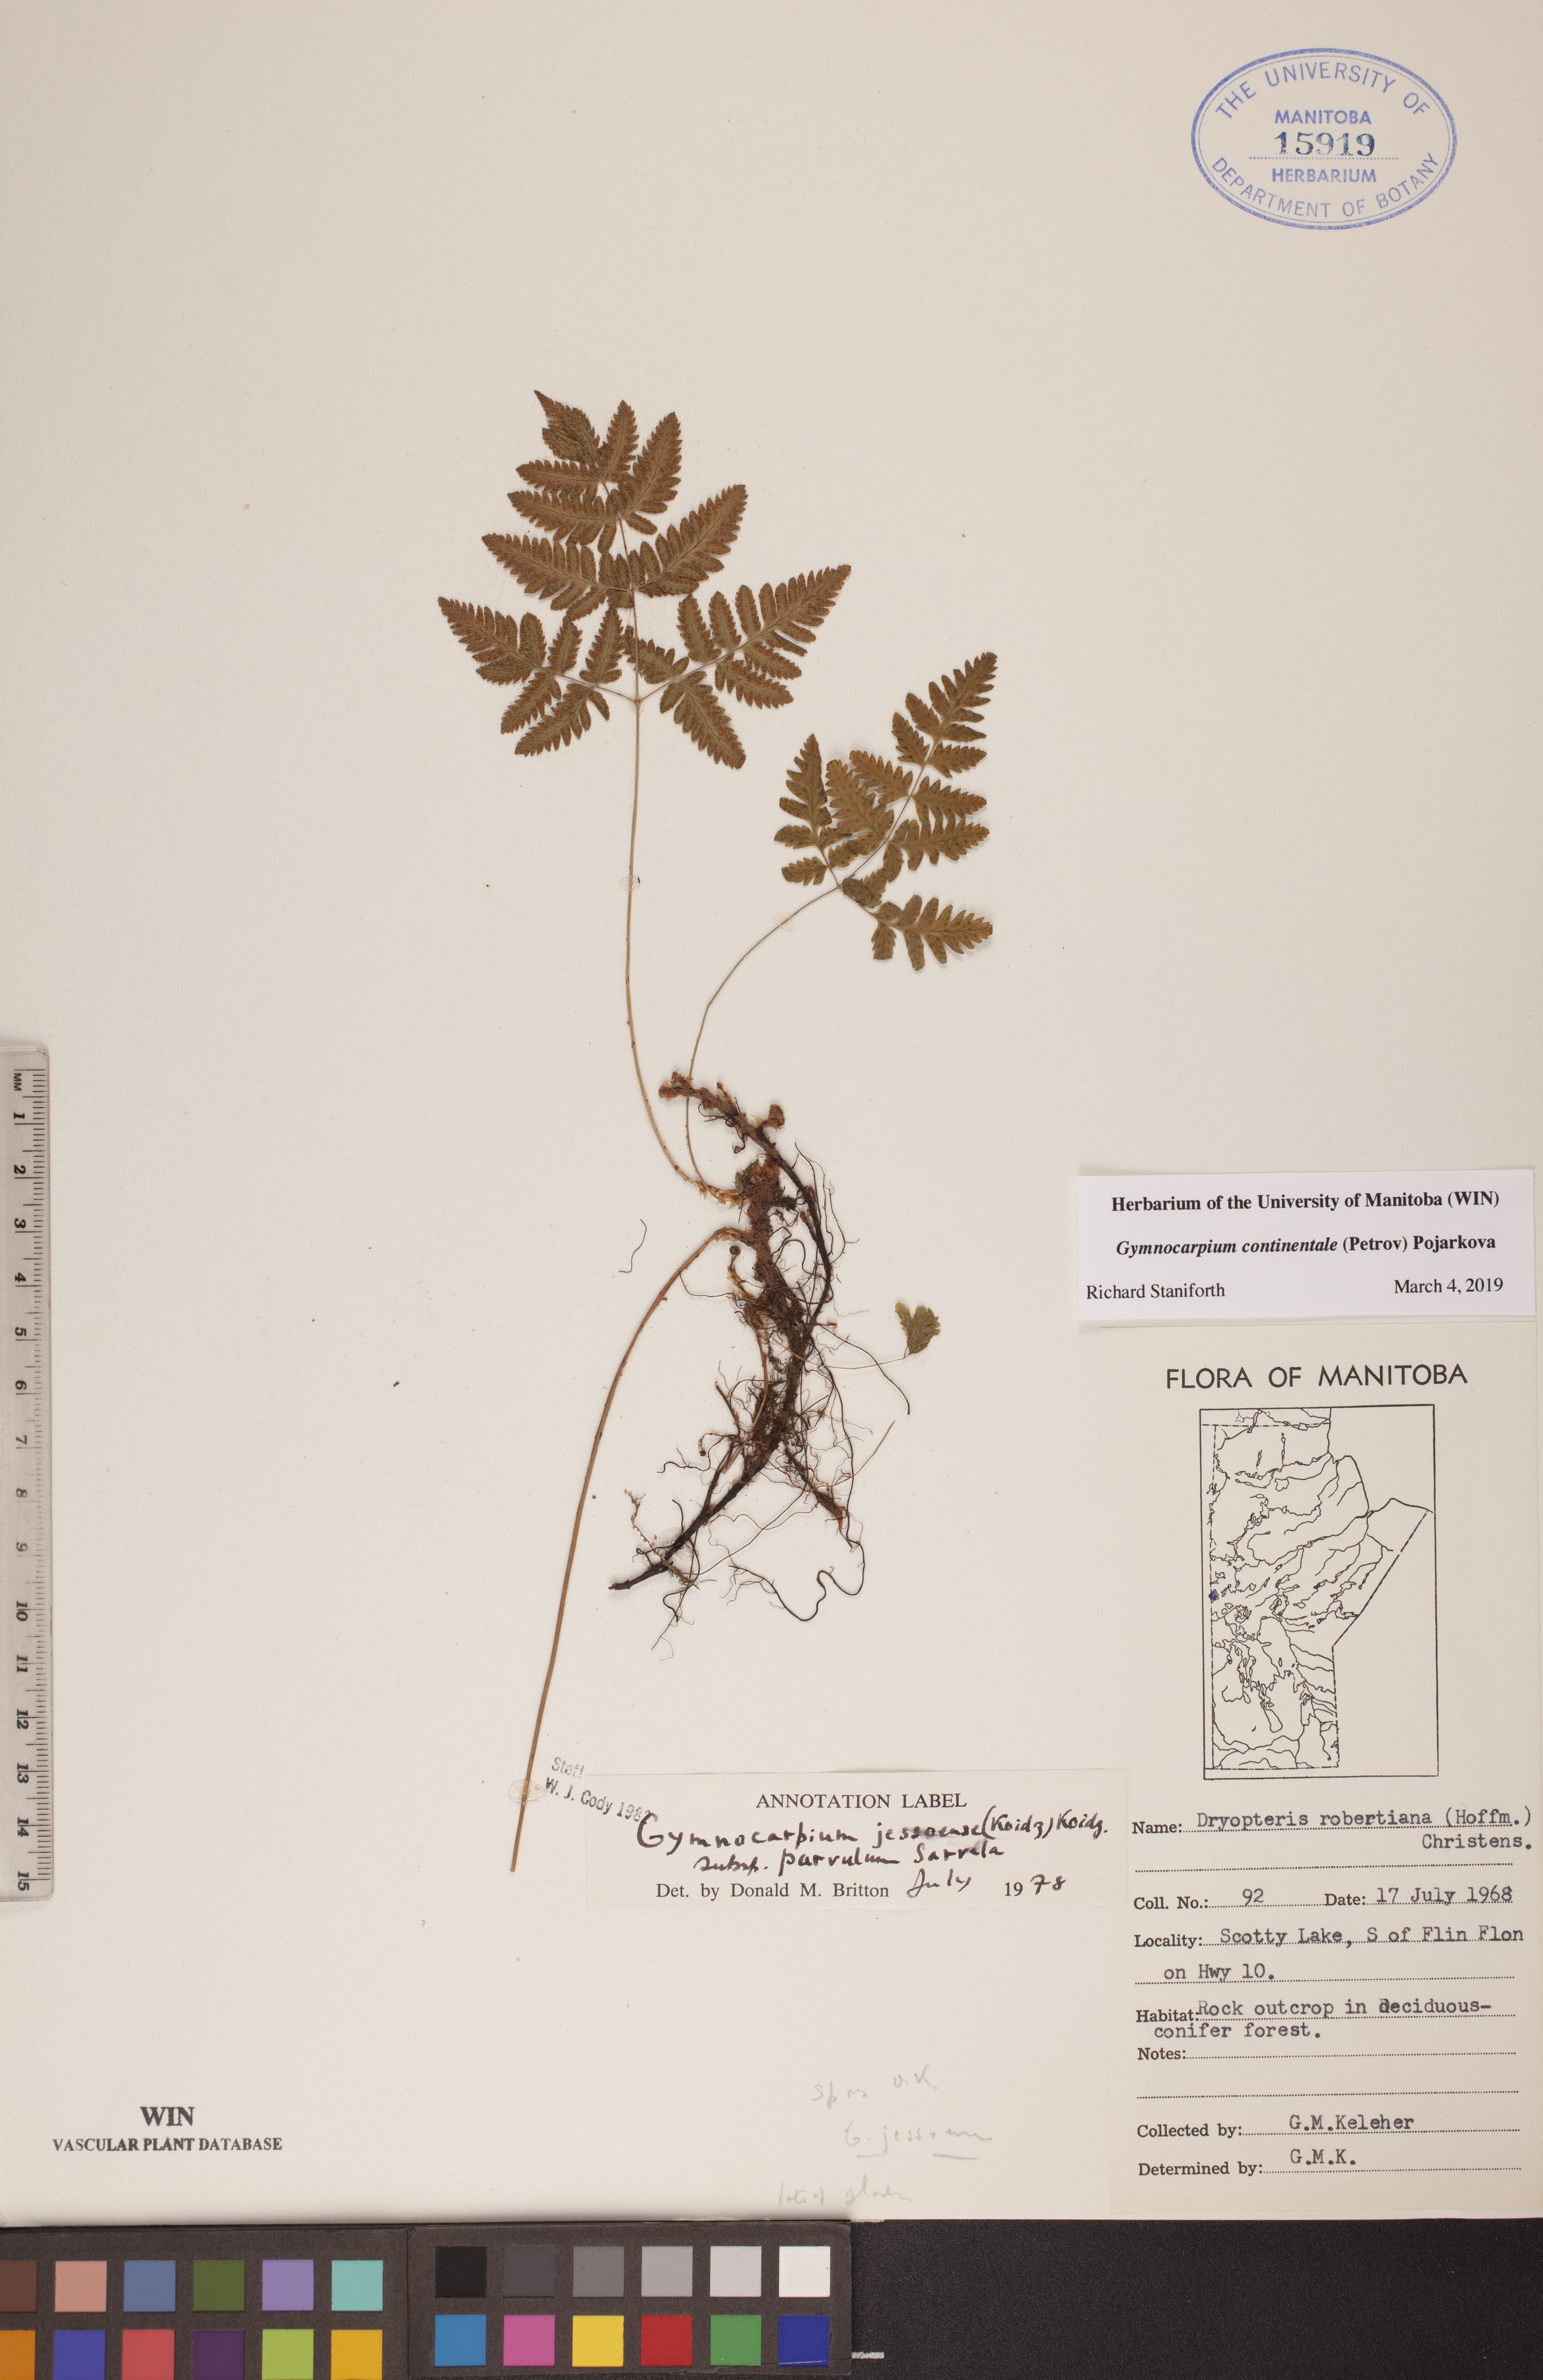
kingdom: Plantae
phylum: Tracheophyta
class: Polypodiopsida
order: Polypodiales
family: Cystopteridaceae
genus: Gymnocarpium
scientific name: Gymnocarpium continentale
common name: Asian oak fern
